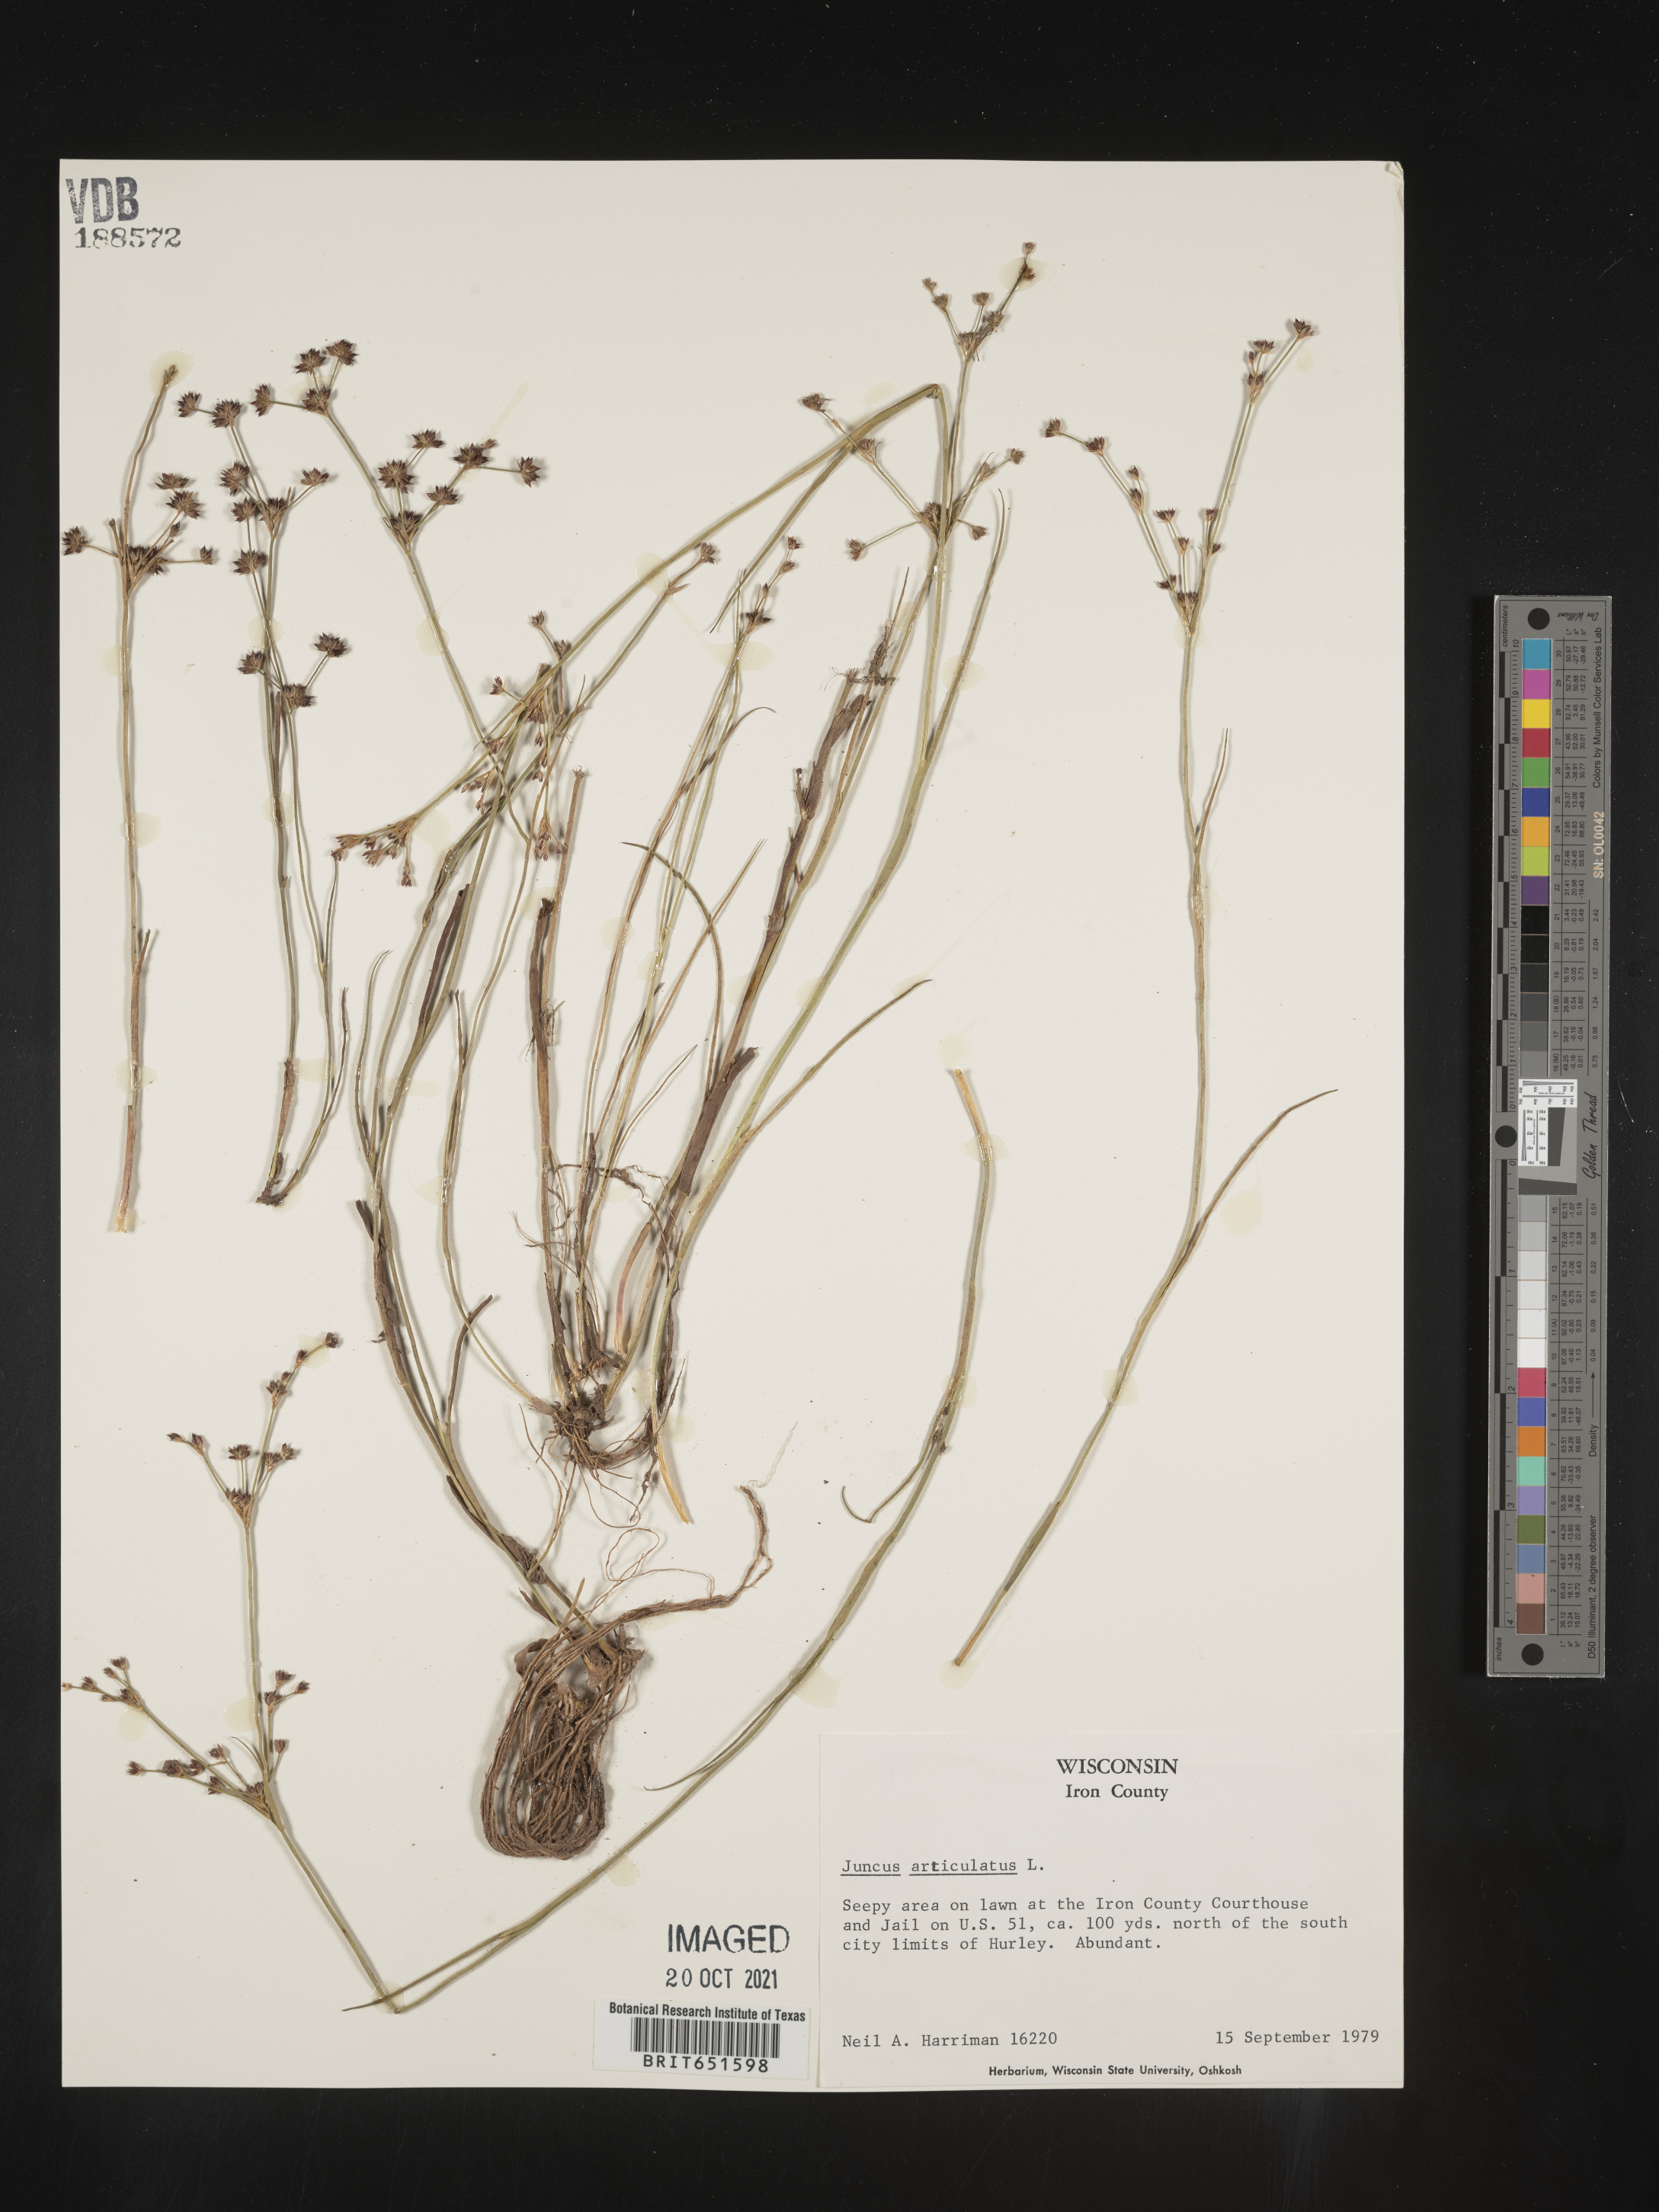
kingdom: Plantae
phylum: Tracheophyta
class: Liliopsida
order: Poales
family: Juncaceae
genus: Juncus
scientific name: Juncus articulatus
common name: Jointed rush
